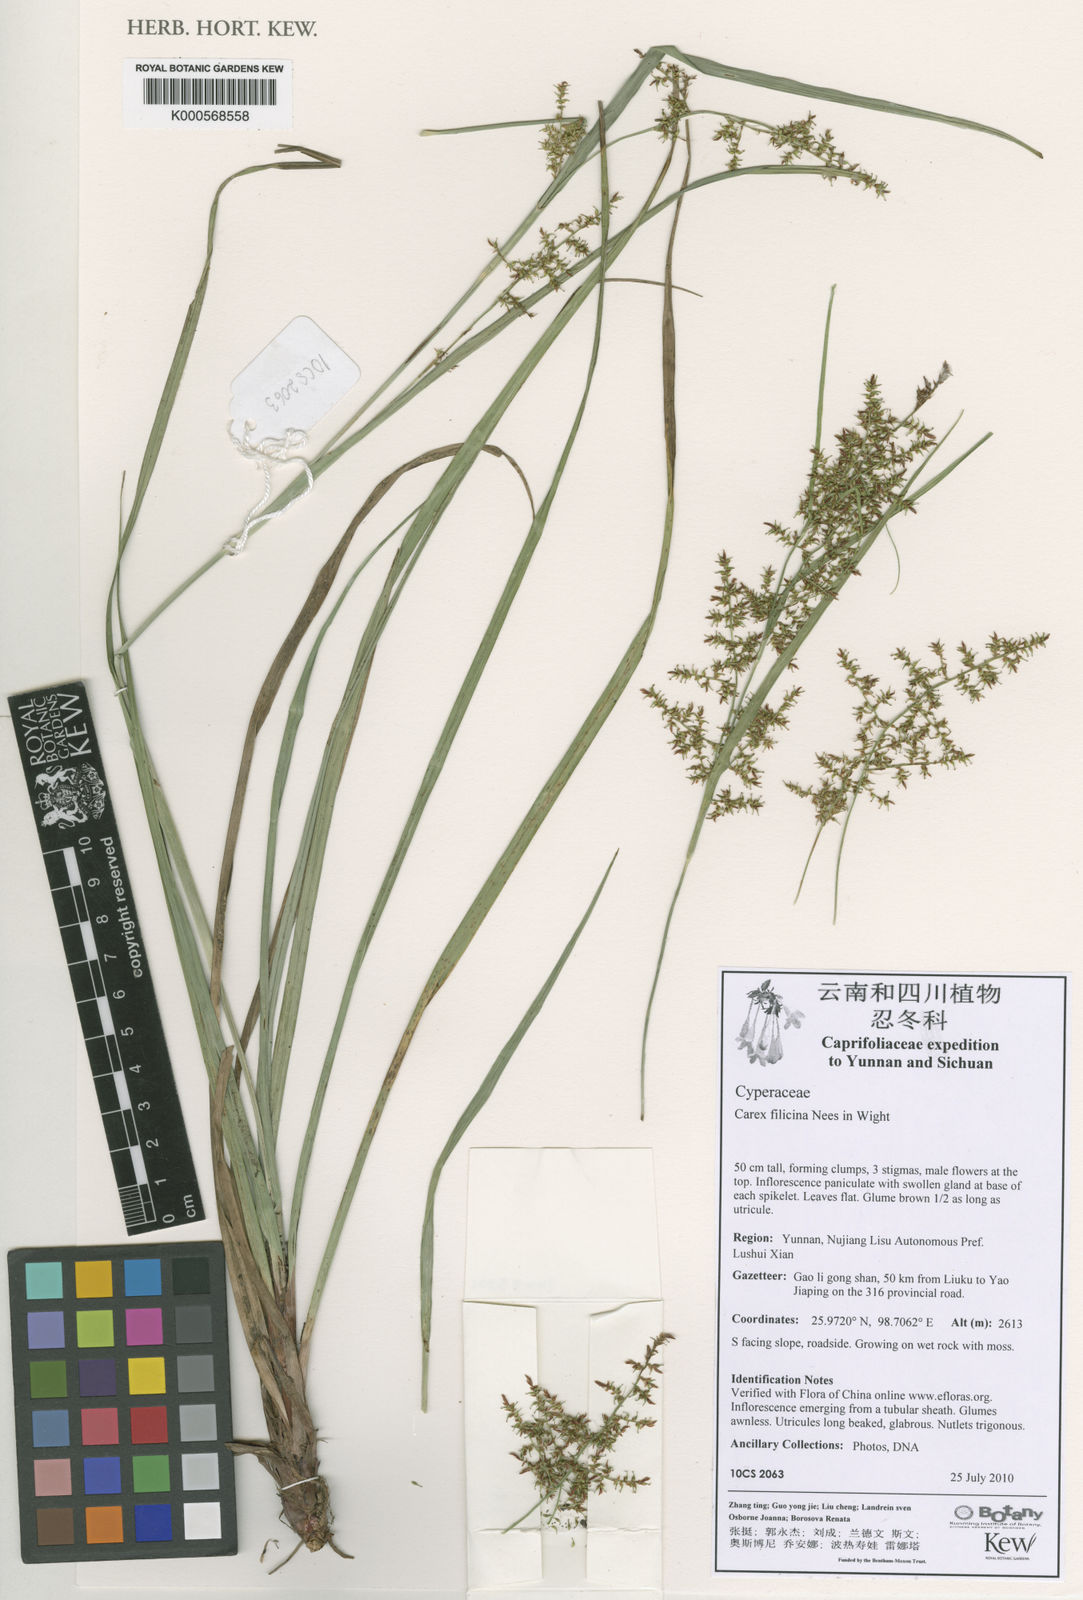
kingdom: Plantae
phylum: Tracheophyta
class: Liliopsida
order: Poales
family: Cyperaceae
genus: Carex
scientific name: Carex filicina
